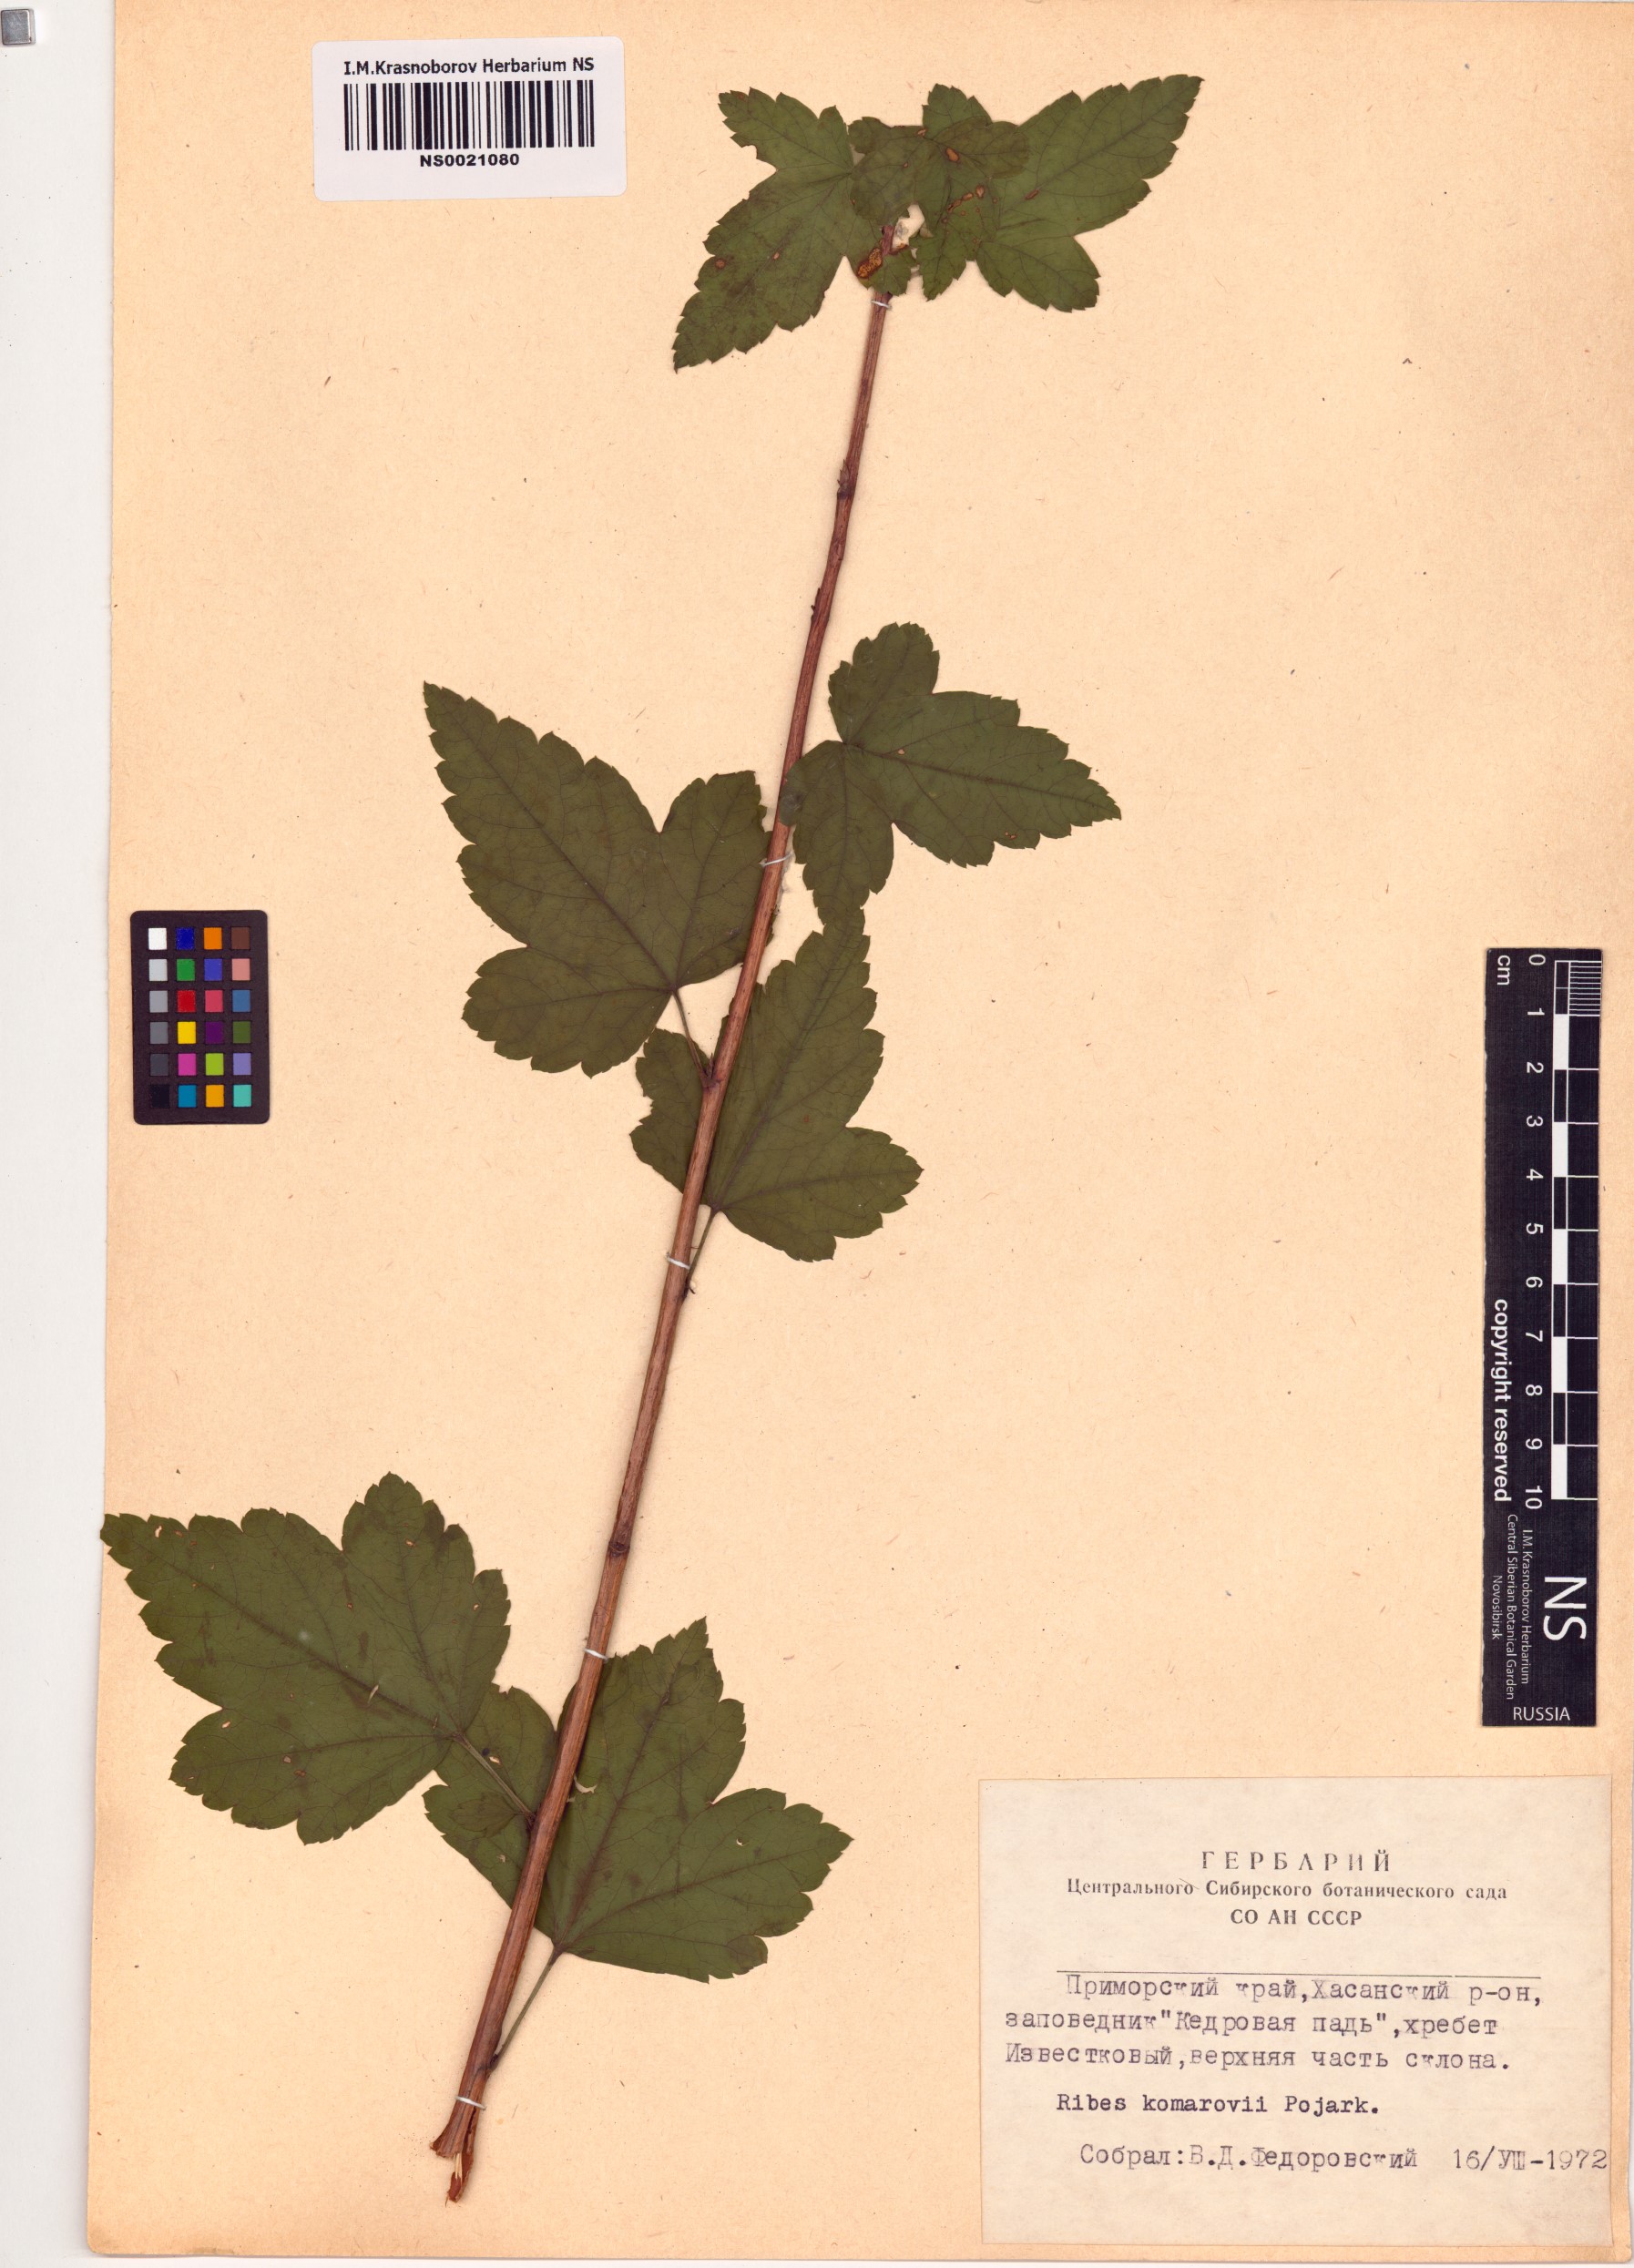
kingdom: Plantae
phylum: Tracheophyta
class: Magnoliopsida
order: Saxifragales
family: Grossulariaceae
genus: Ribes
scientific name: Ribes komarovii
